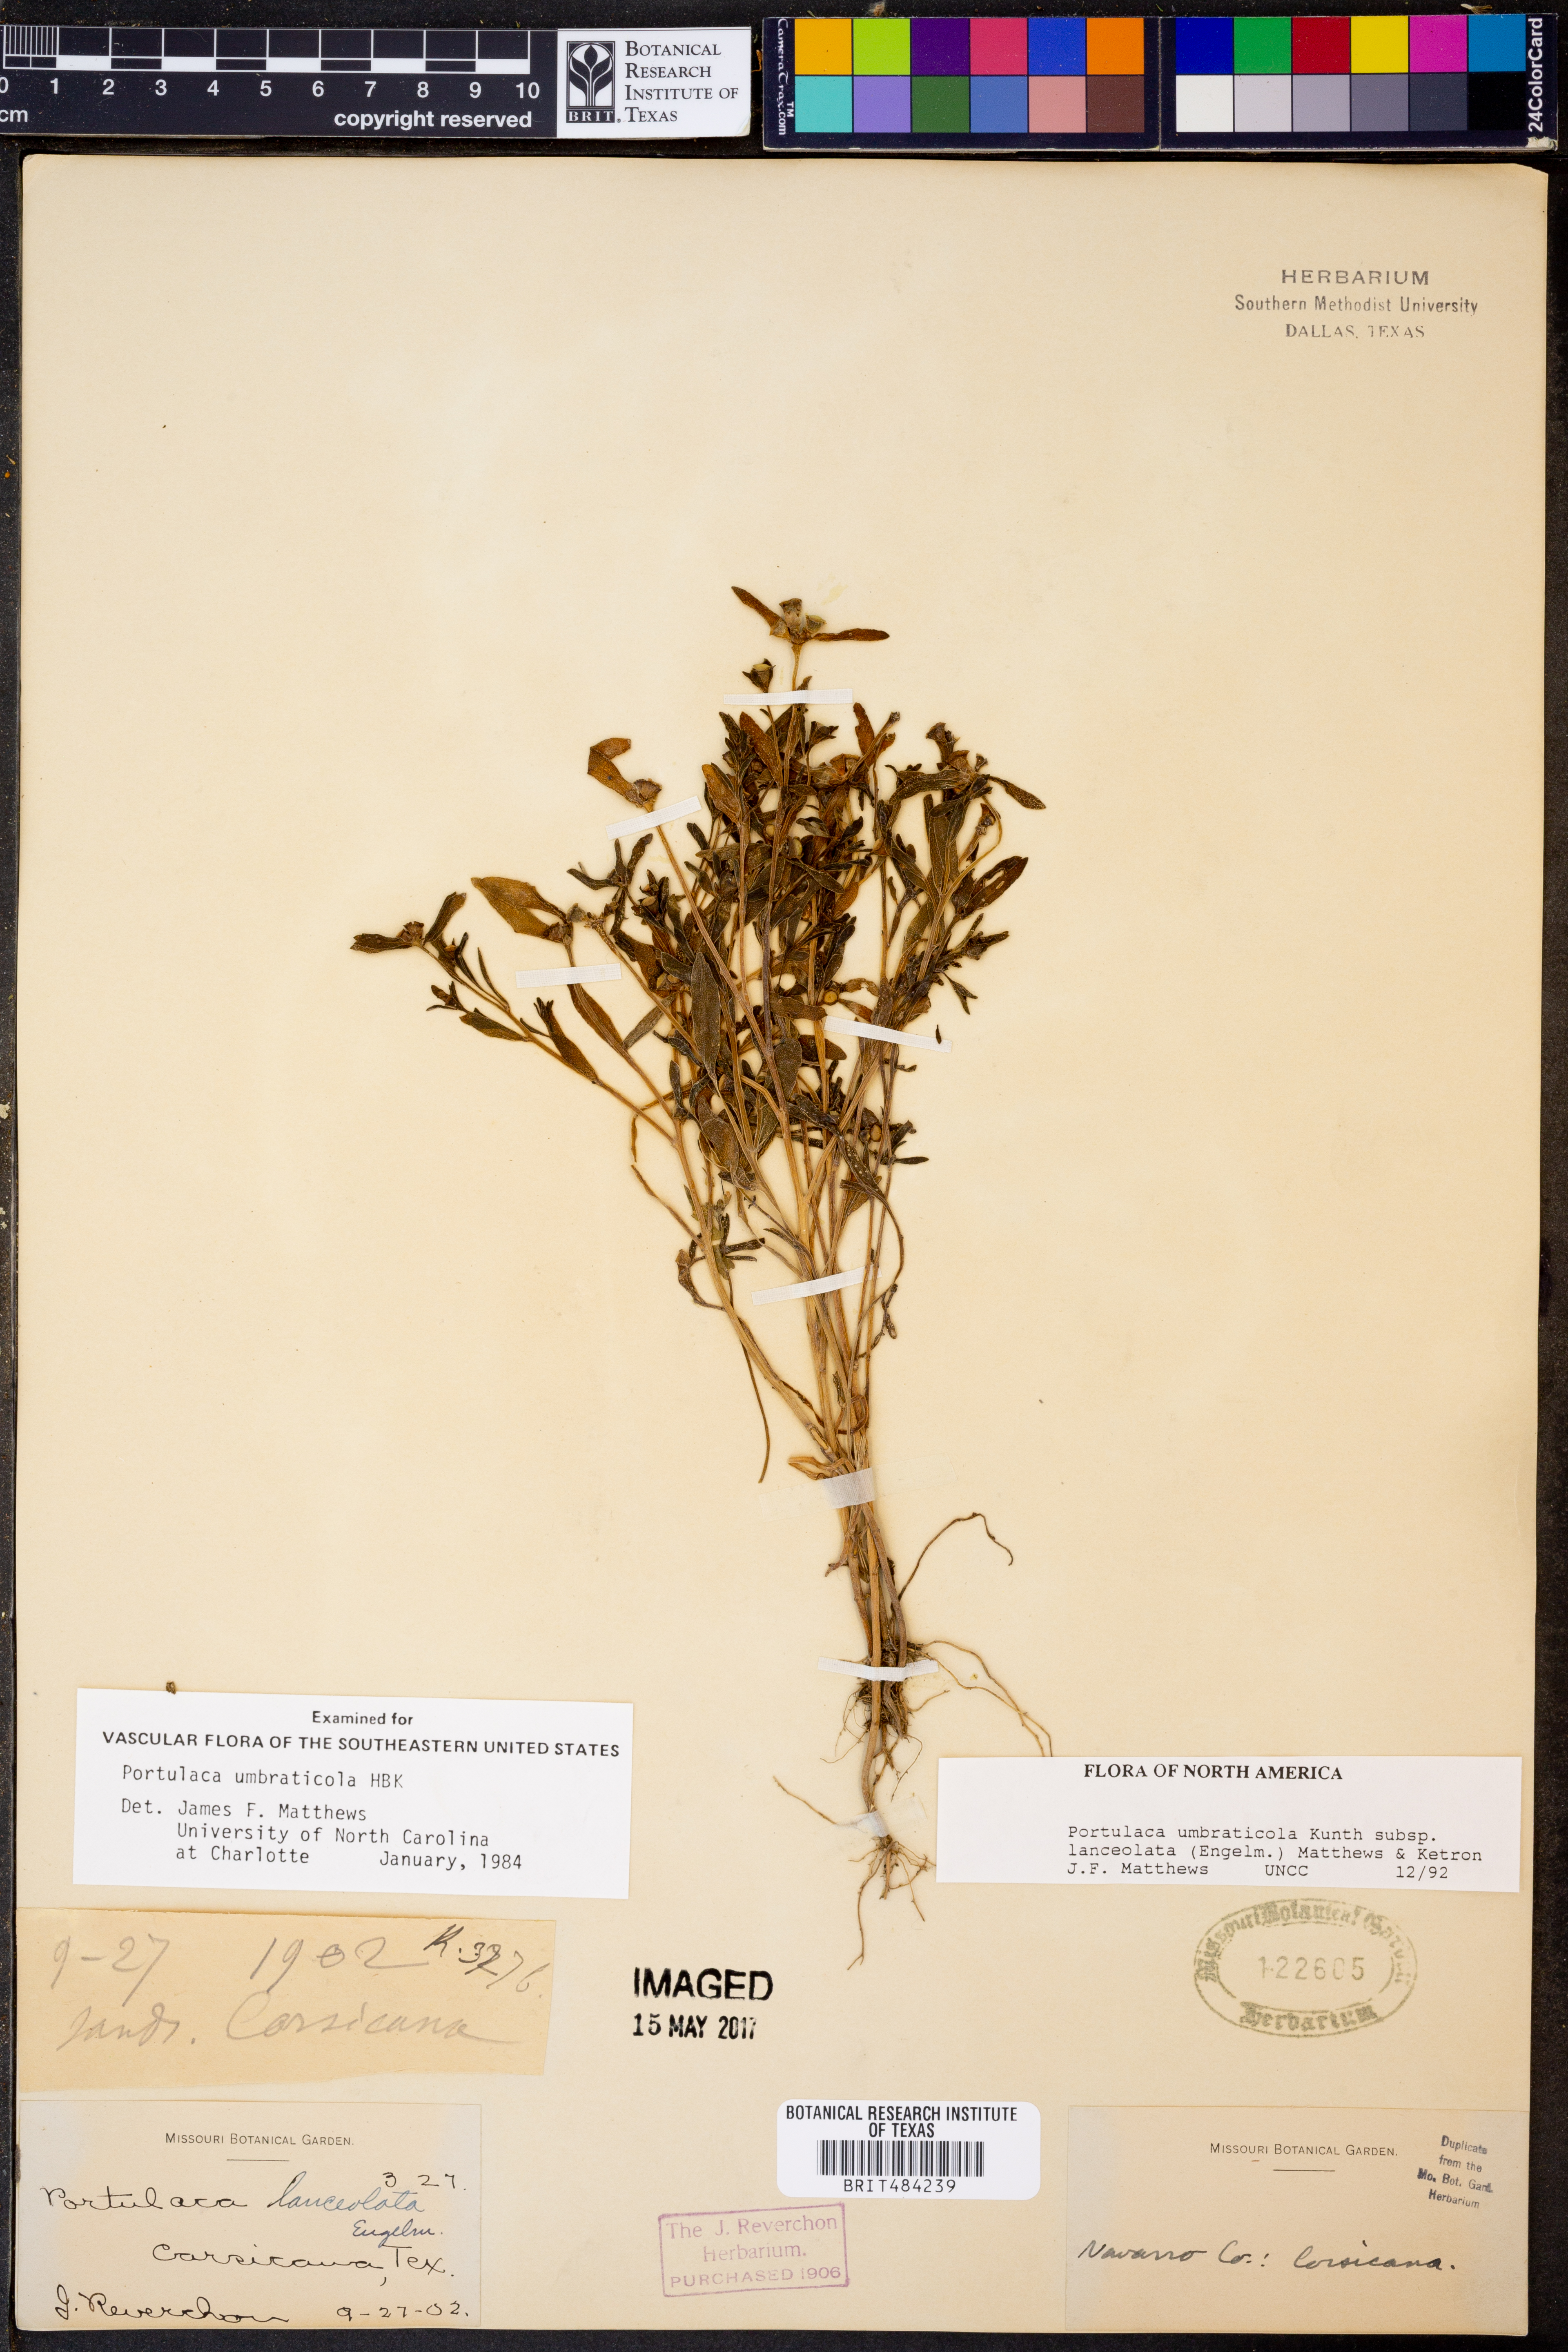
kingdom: Plantae
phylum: Tracheophyta
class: Magnoliopsida
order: Caryophyllales
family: Portulacaceae
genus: Portulaca
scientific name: Portulaca umbraticola
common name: Wingpod purslane
